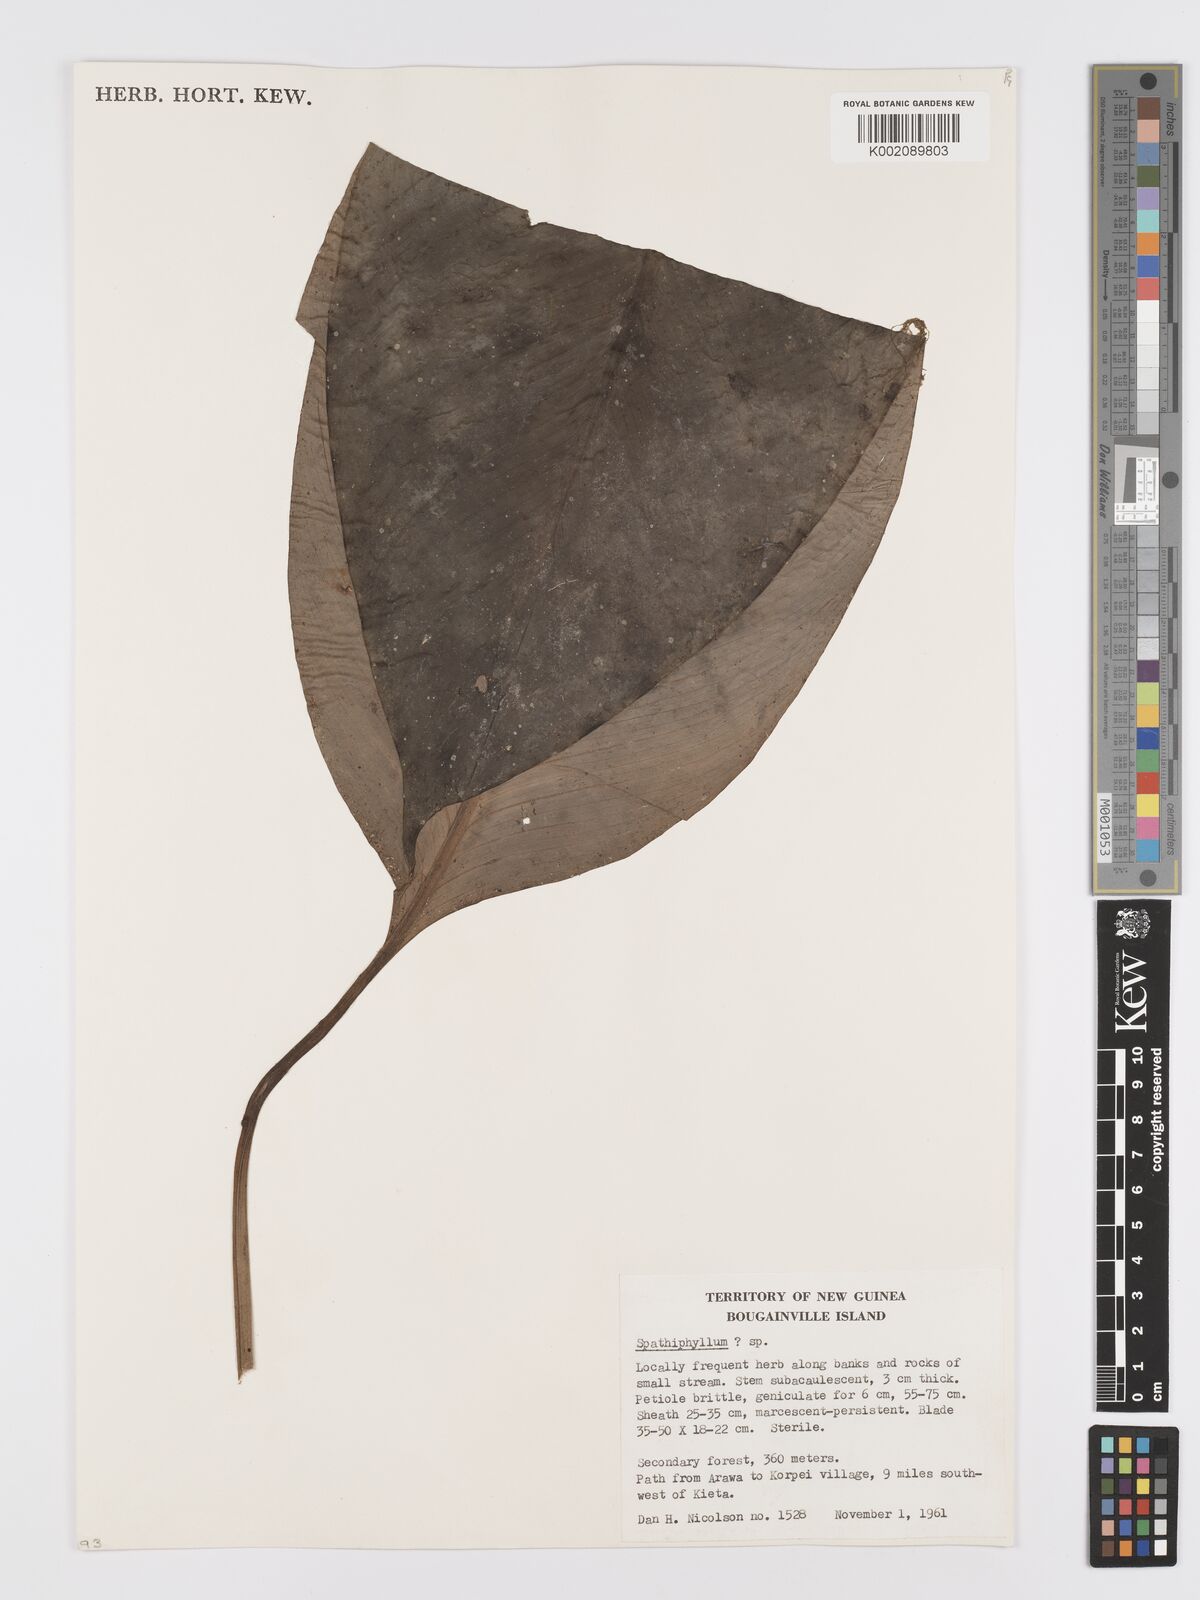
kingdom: Plantae
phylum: Tracheophyta
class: Liliopsida
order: Alismatales
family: Araceae
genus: Spathiphyllum
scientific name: Spathiphyllum solomonense
